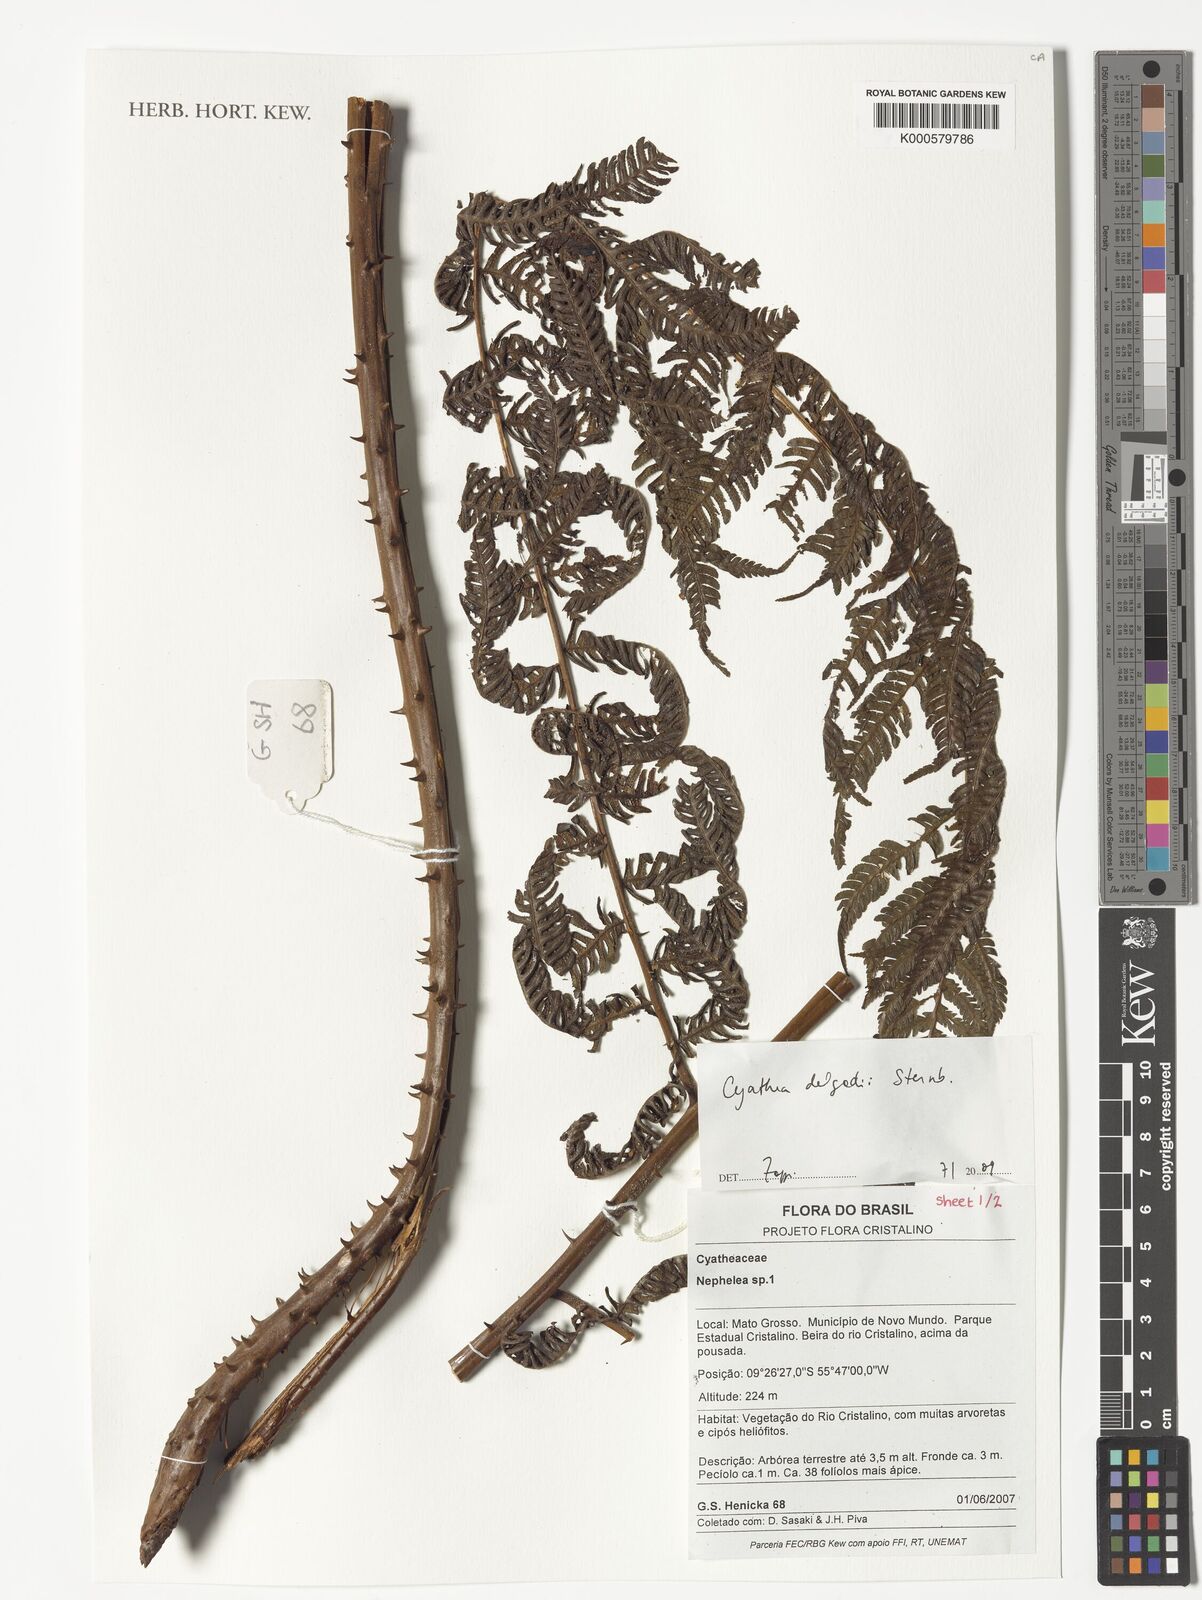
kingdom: Plantae
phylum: Tracheophyta
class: Polypodiopsida
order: Cyatheales
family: Cyatheaceae
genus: Cyathea
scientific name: Cyathea delgadii
